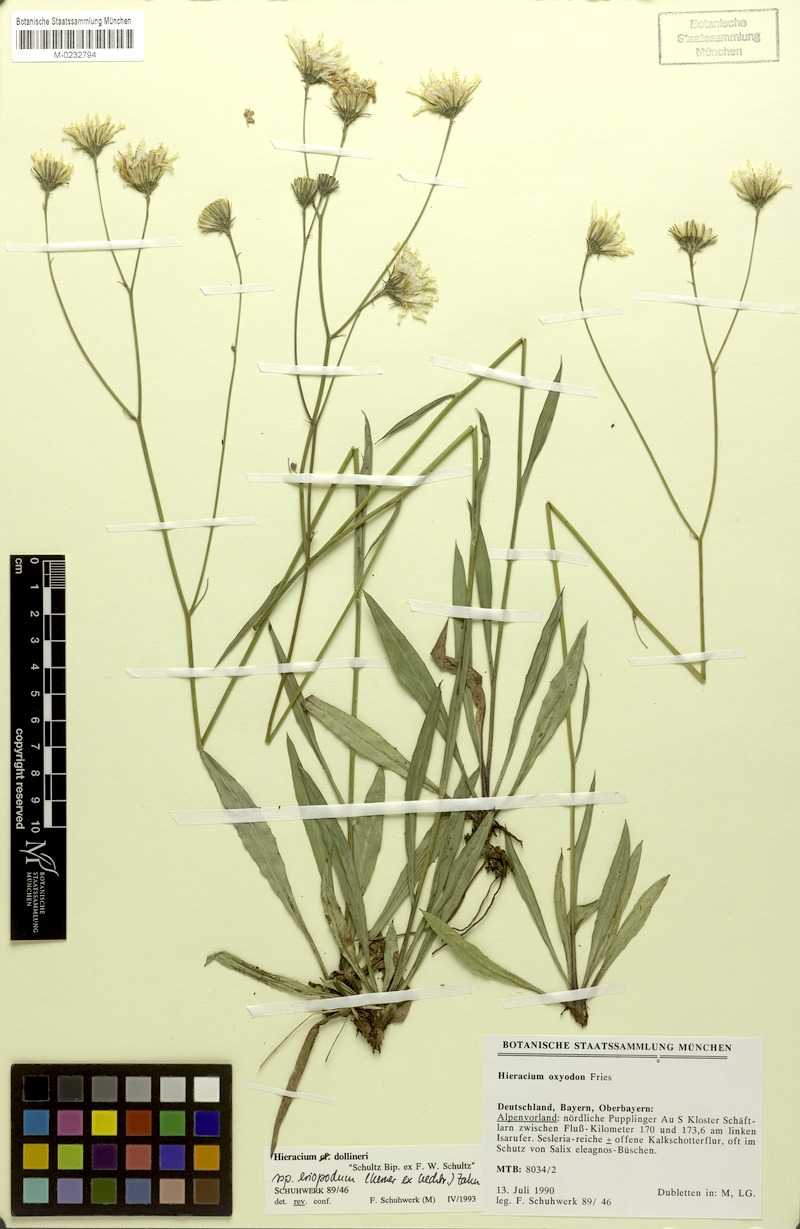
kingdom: Plantae
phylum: Tracheophyta
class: Magnoliopsida
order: Asterales
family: Asteraceae
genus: Hieracium
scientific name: Hieracium dollineri
